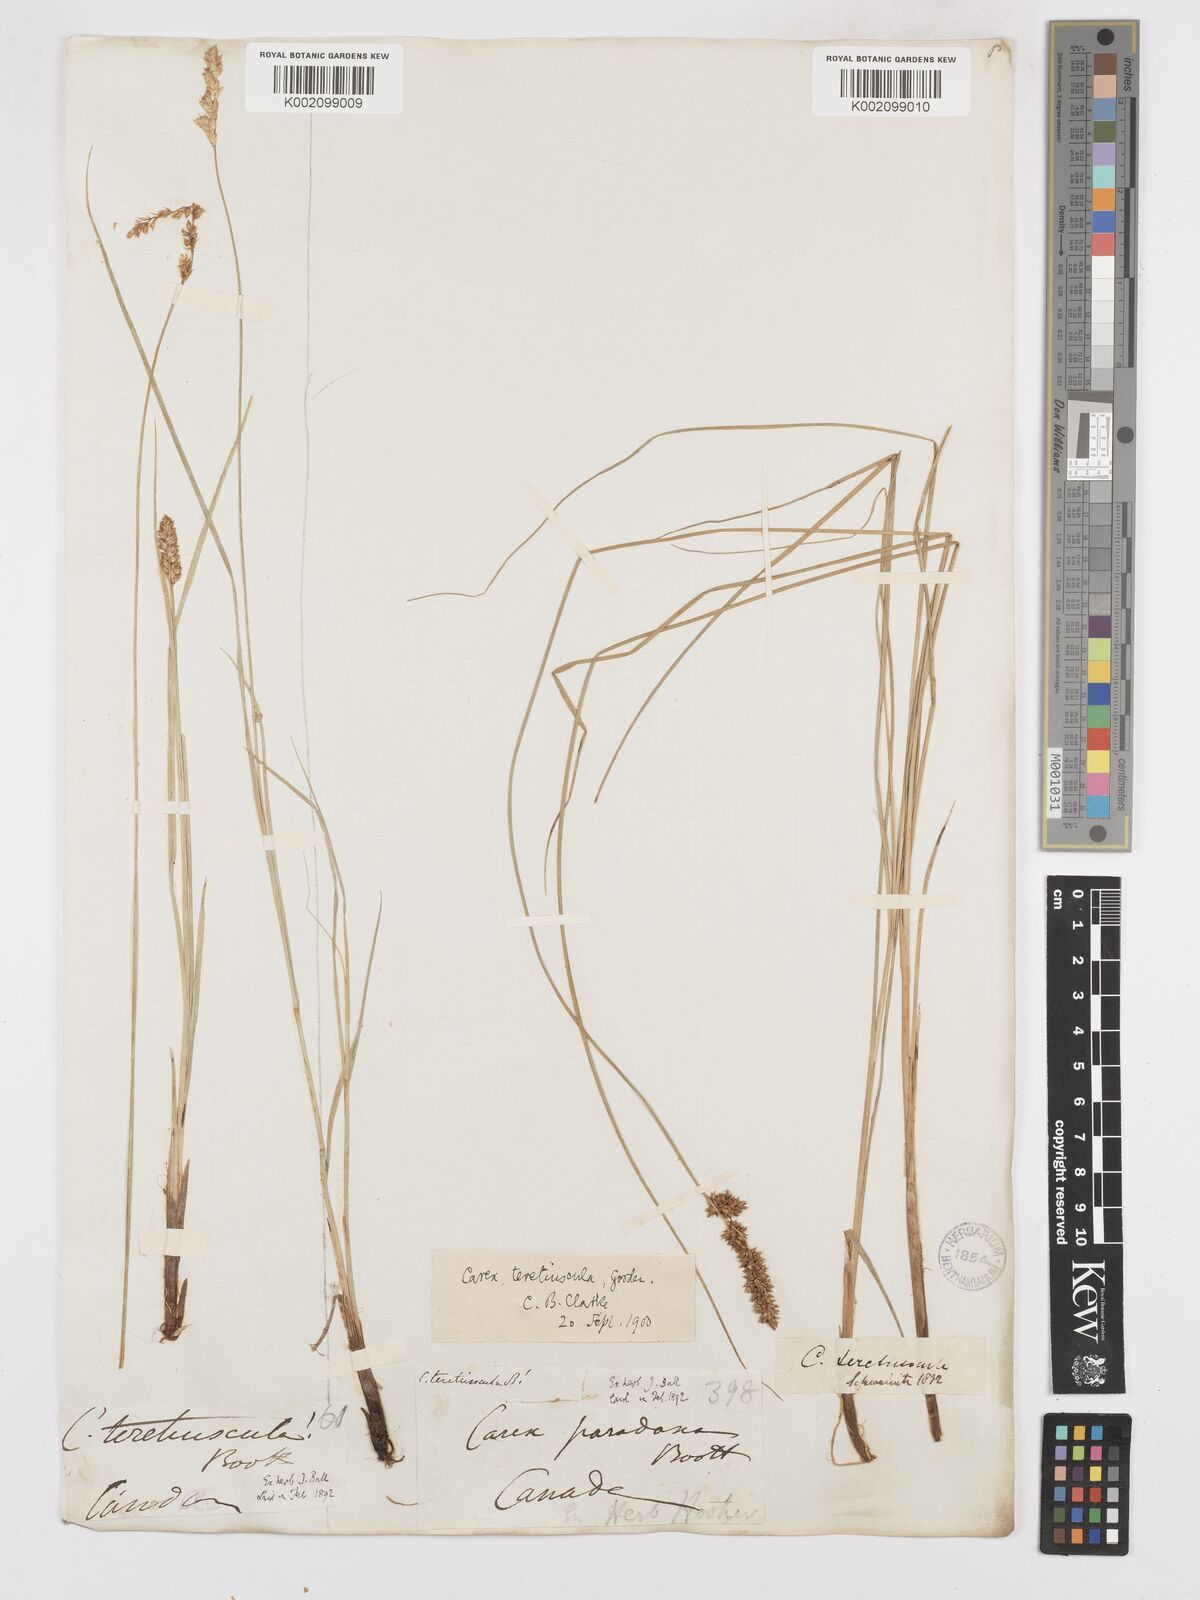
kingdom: Plantae
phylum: Tracheophyta
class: Liliopsida
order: Poales
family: Cyperaceae
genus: Carex
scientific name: Carex diandra
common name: Lesser tussock-sedge
